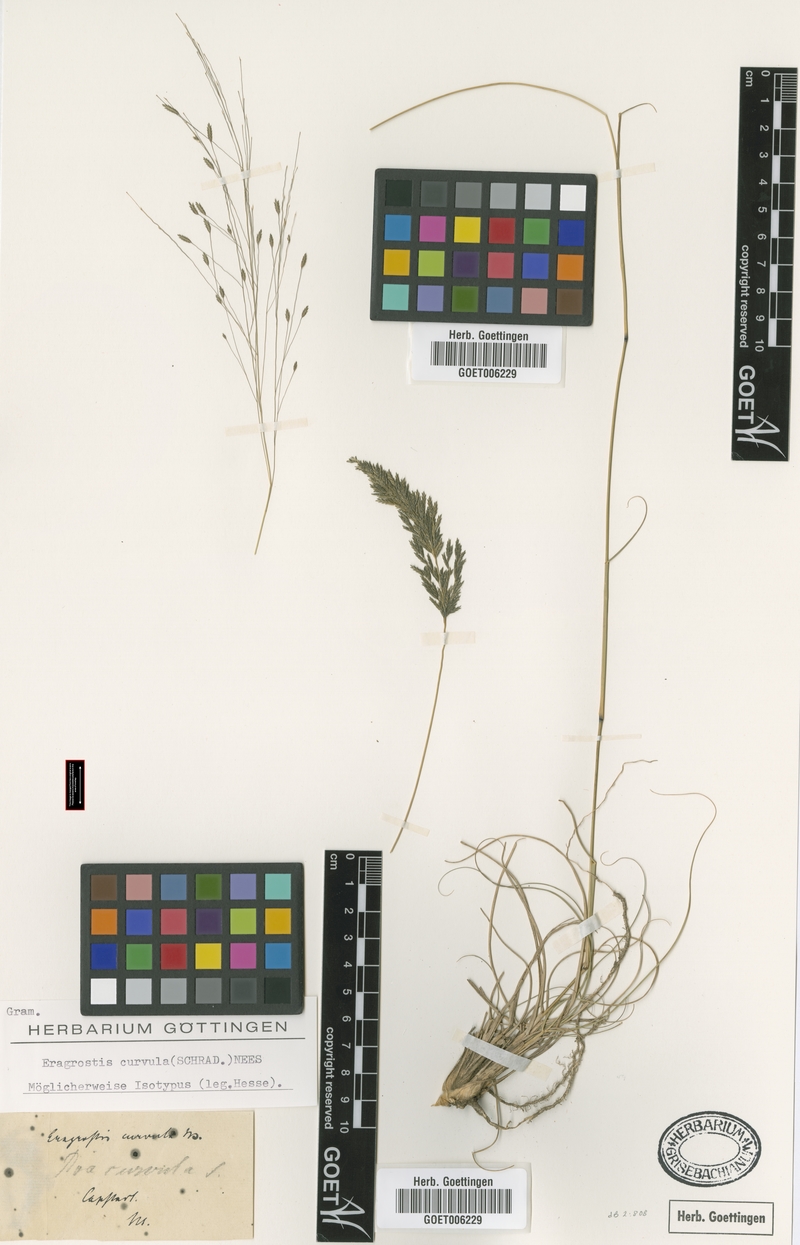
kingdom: Plantae
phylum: Tracheophyta
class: Liliopsida
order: Poales
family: Poaceae
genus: Eragrostis
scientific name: Eragrostis curvula
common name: African love-grass
